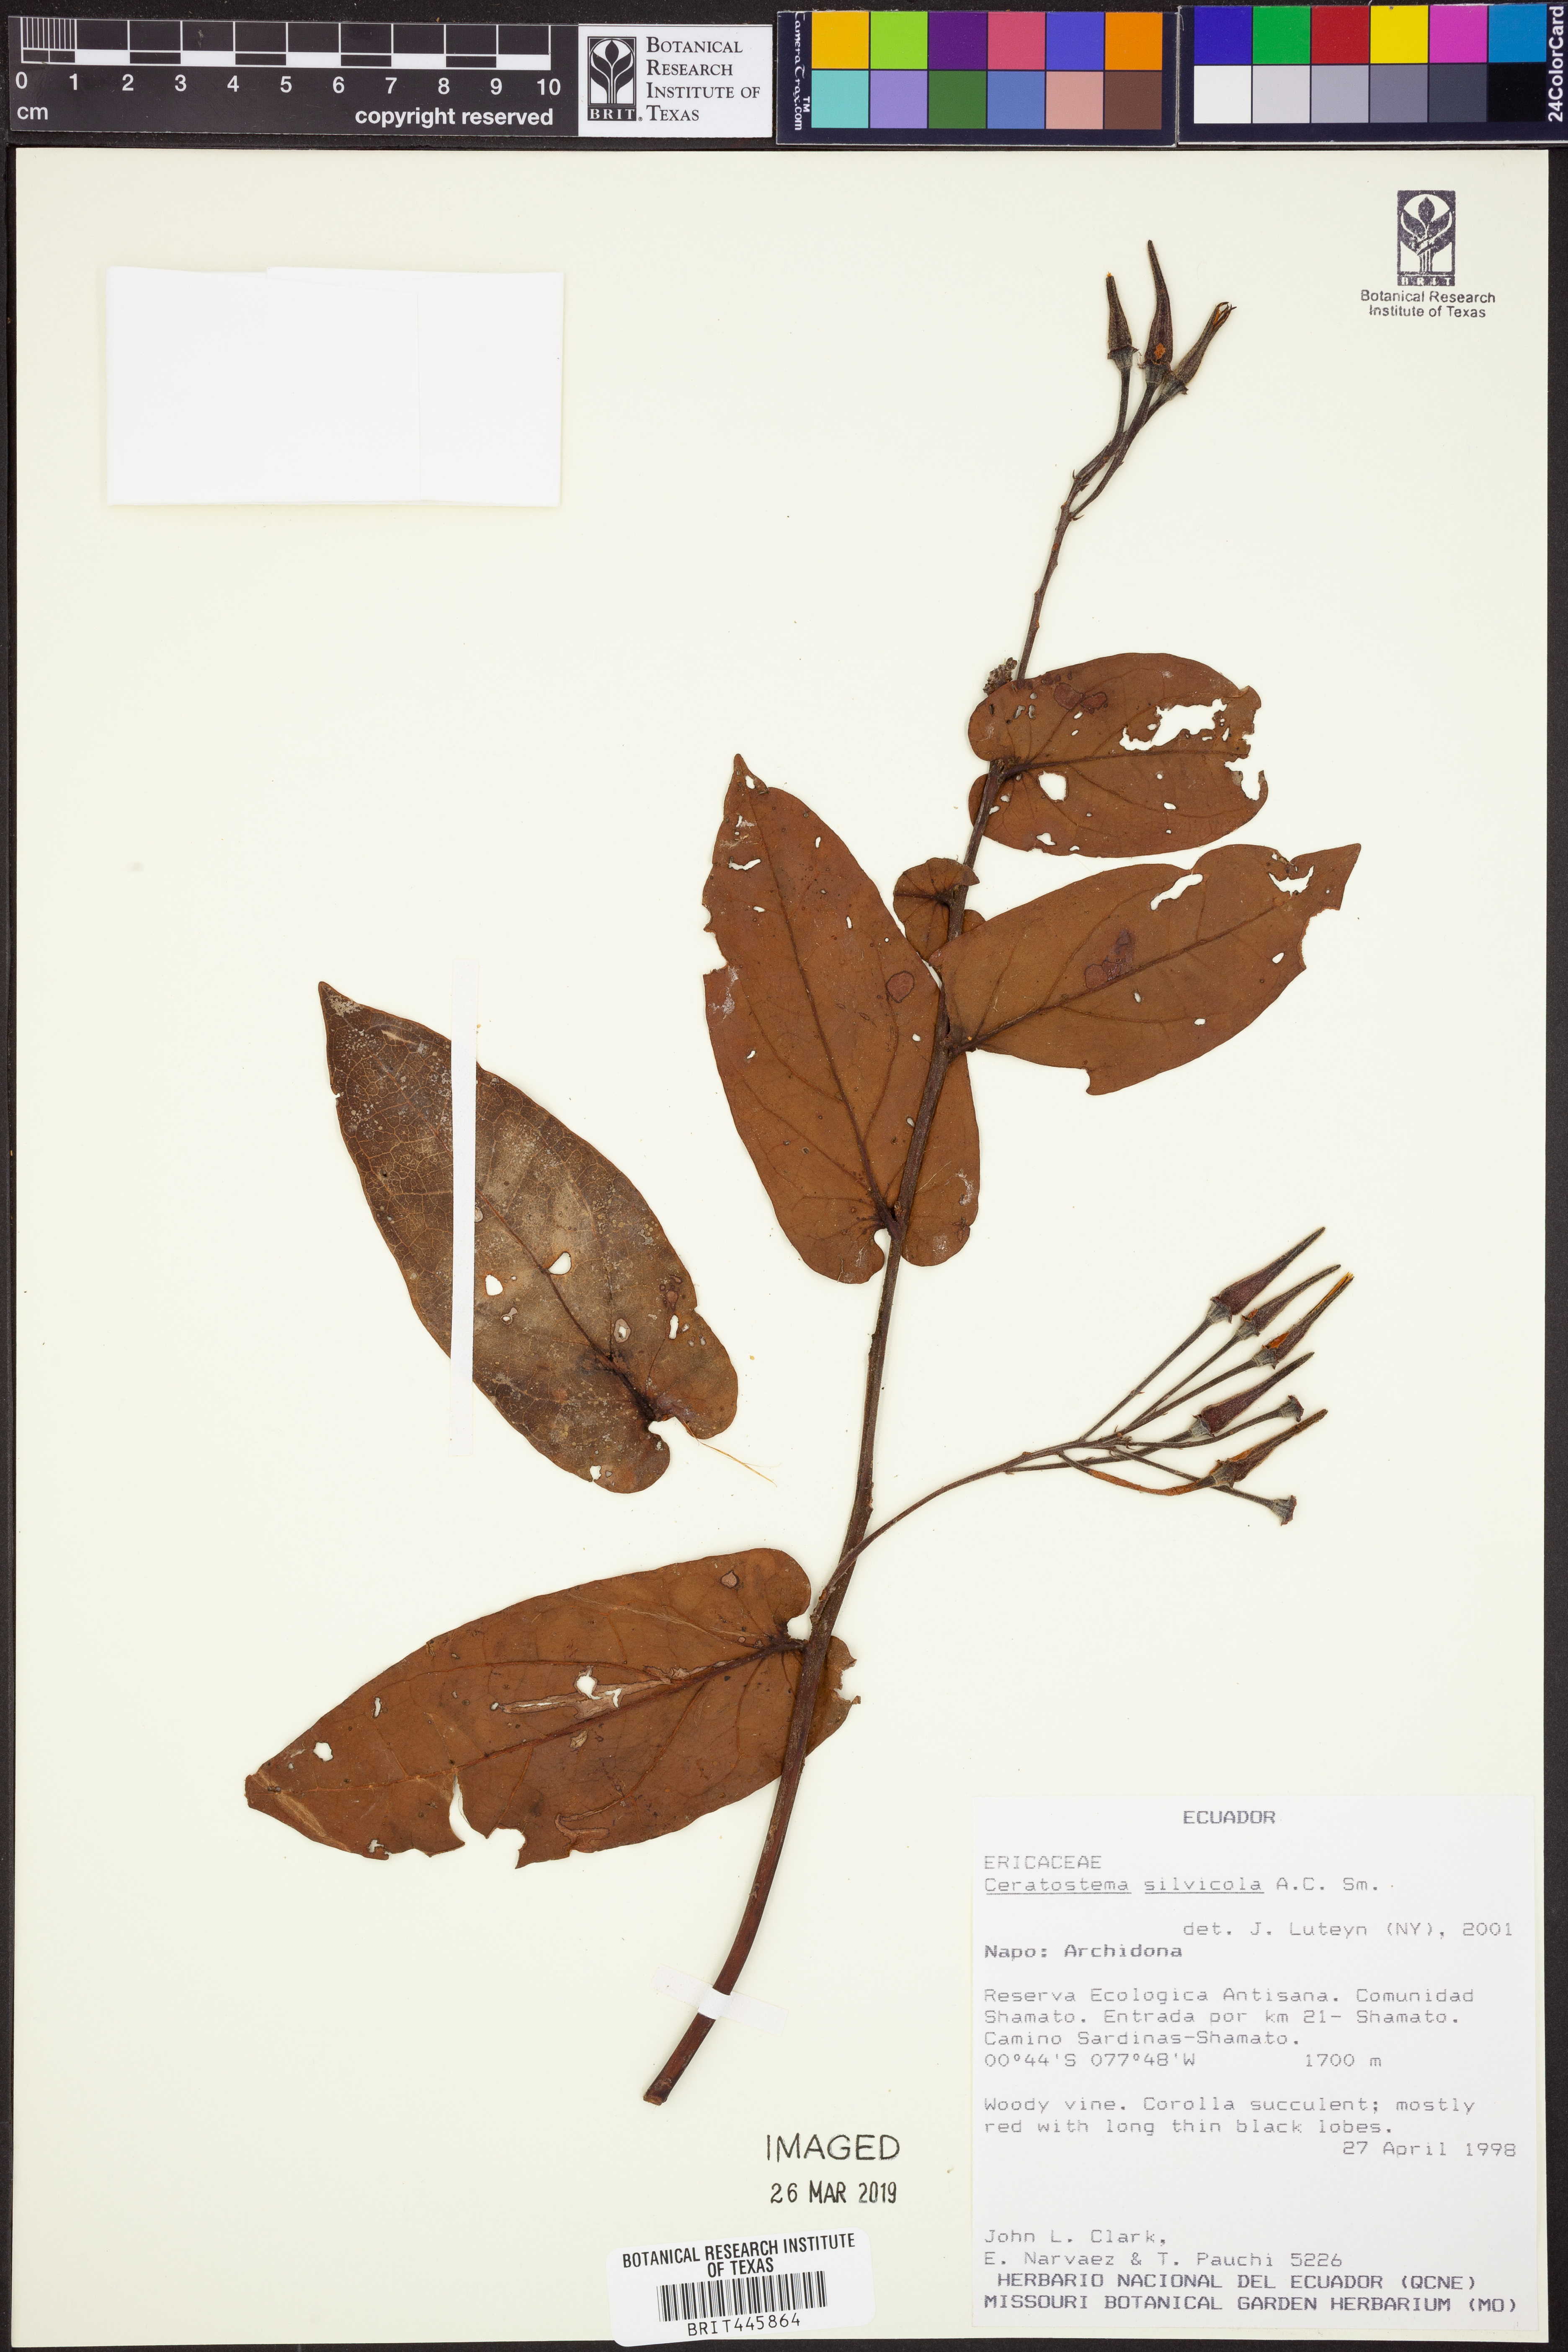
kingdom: Plantae
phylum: Tracheophyta
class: Magnoliopsida
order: Ericales
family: Ericaceae
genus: Ceratostema
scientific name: Ceratostema silvicola
